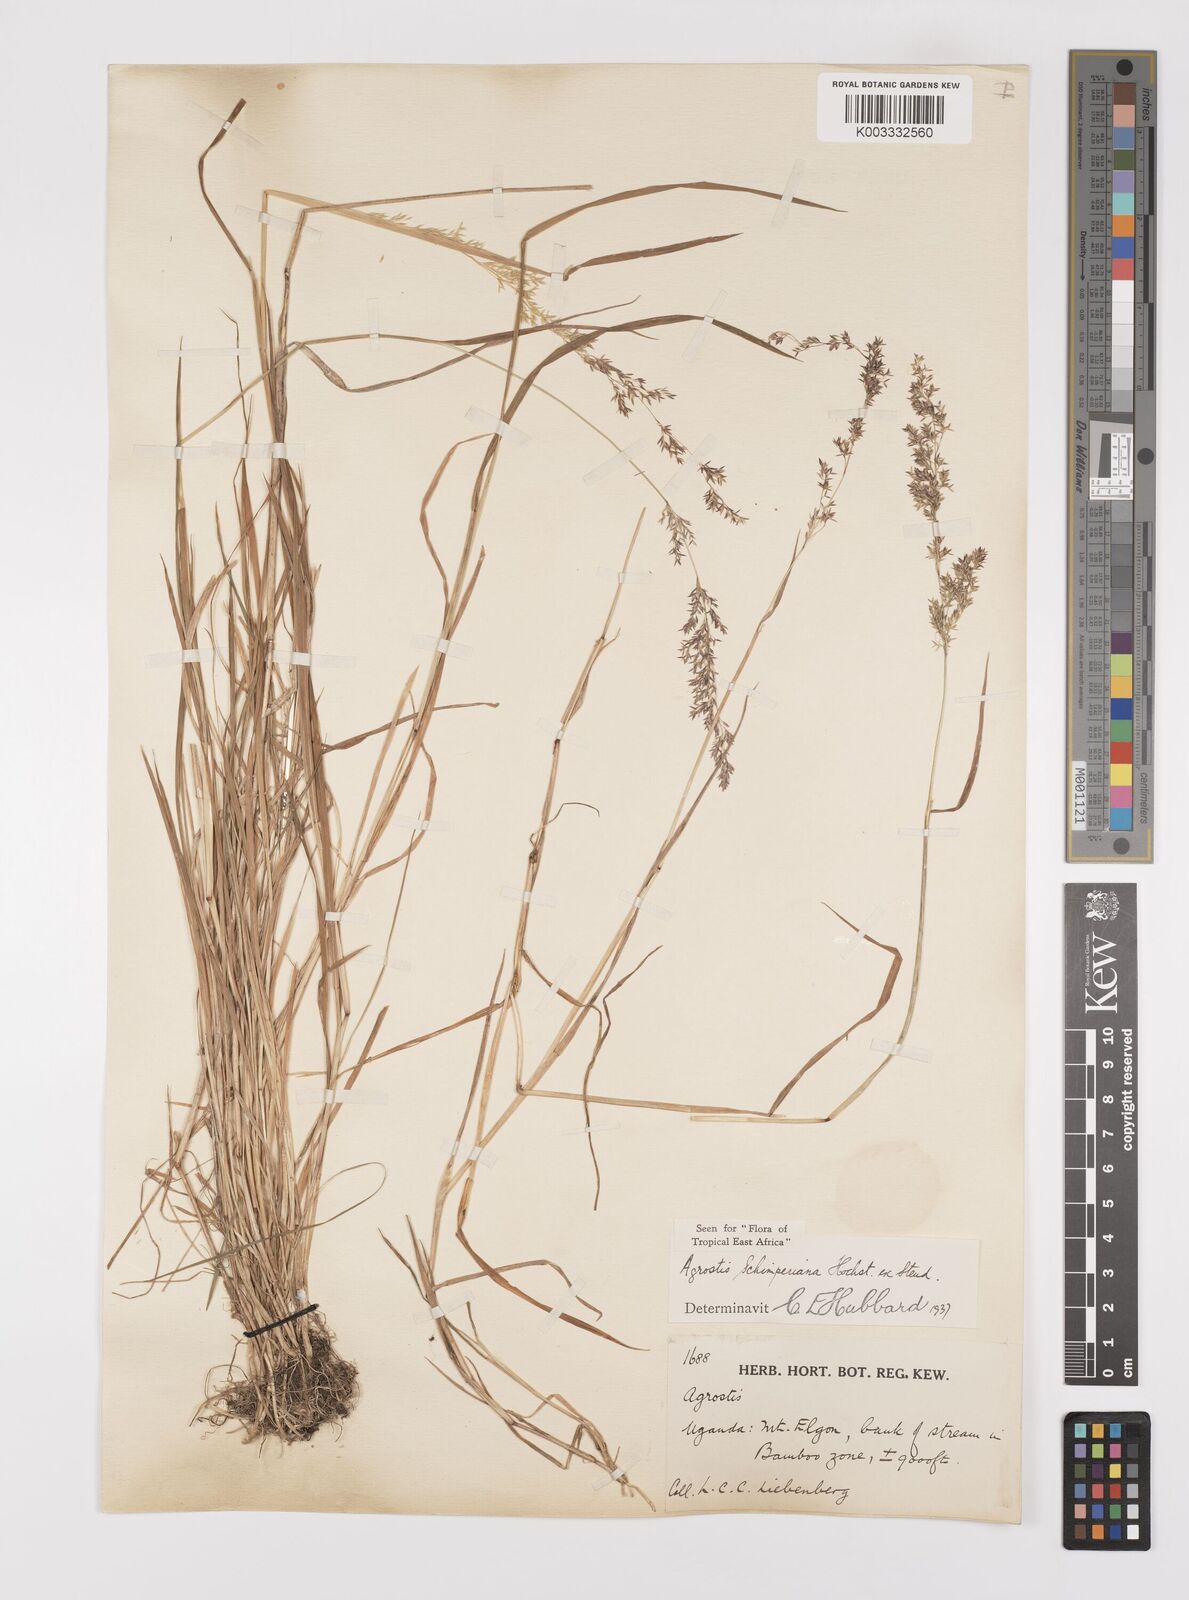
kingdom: Plantae
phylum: Tracheophyta
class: Liliopsida
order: Poales
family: Poaceae
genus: Polypogon
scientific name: Polypogon schimperianus
